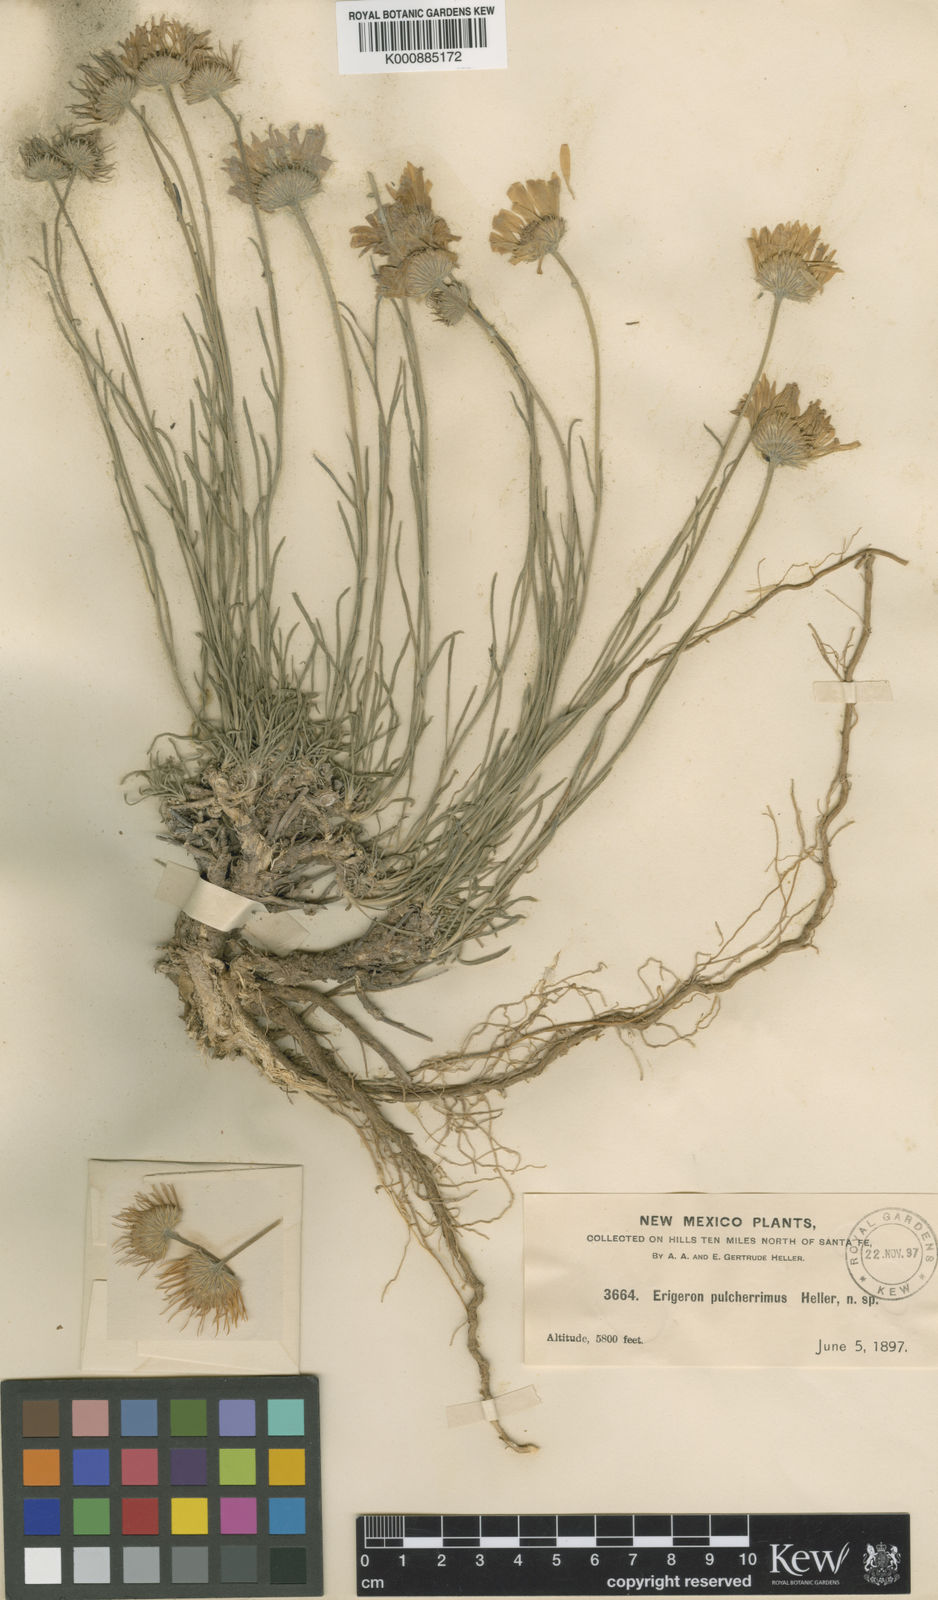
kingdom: Plantae
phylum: Tracheophyta
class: Magnoliopsida
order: Asterales
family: Asteraceae
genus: Erigeron
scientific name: Erigeron
